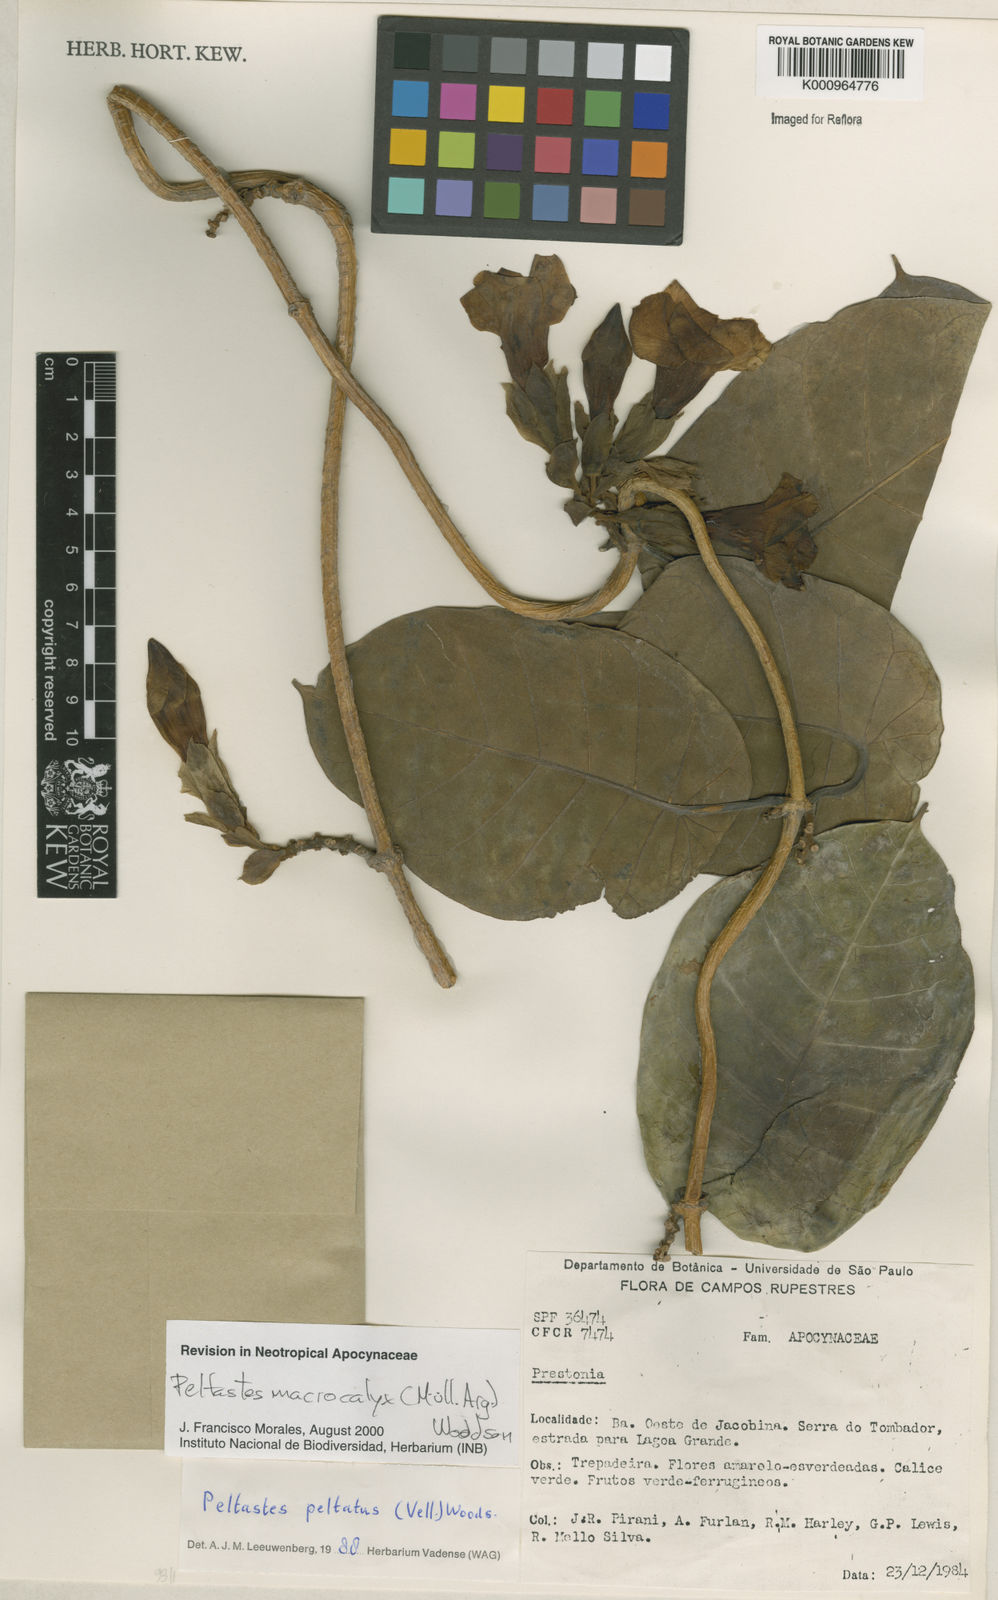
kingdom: Plantae
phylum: Tracheophyta
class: Magnoliopsida
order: Gentianales
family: Apocynaceae
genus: Macropharynx
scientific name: Macropharynx
